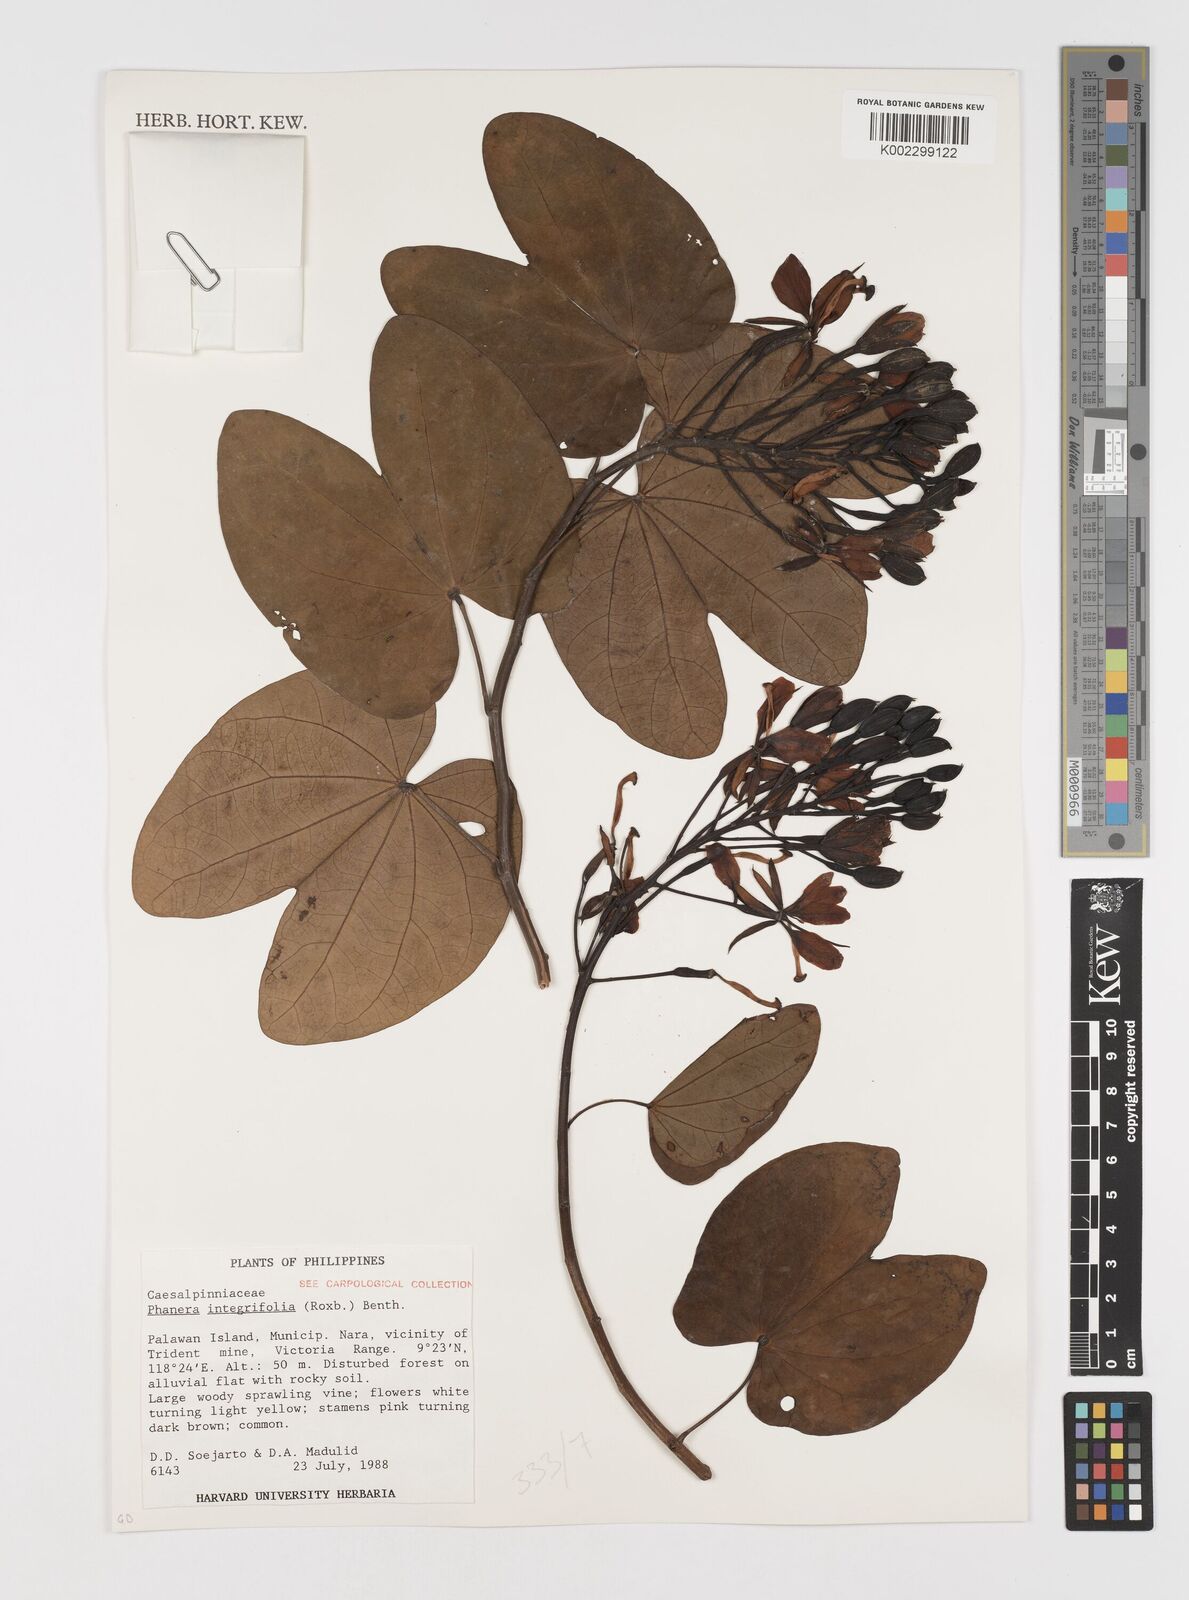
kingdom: Plantae
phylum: Tracheophyta
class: Magnoliopsida
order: Fabales
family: Fabaceae
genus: Phanera
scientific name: Phanera integrifolia
